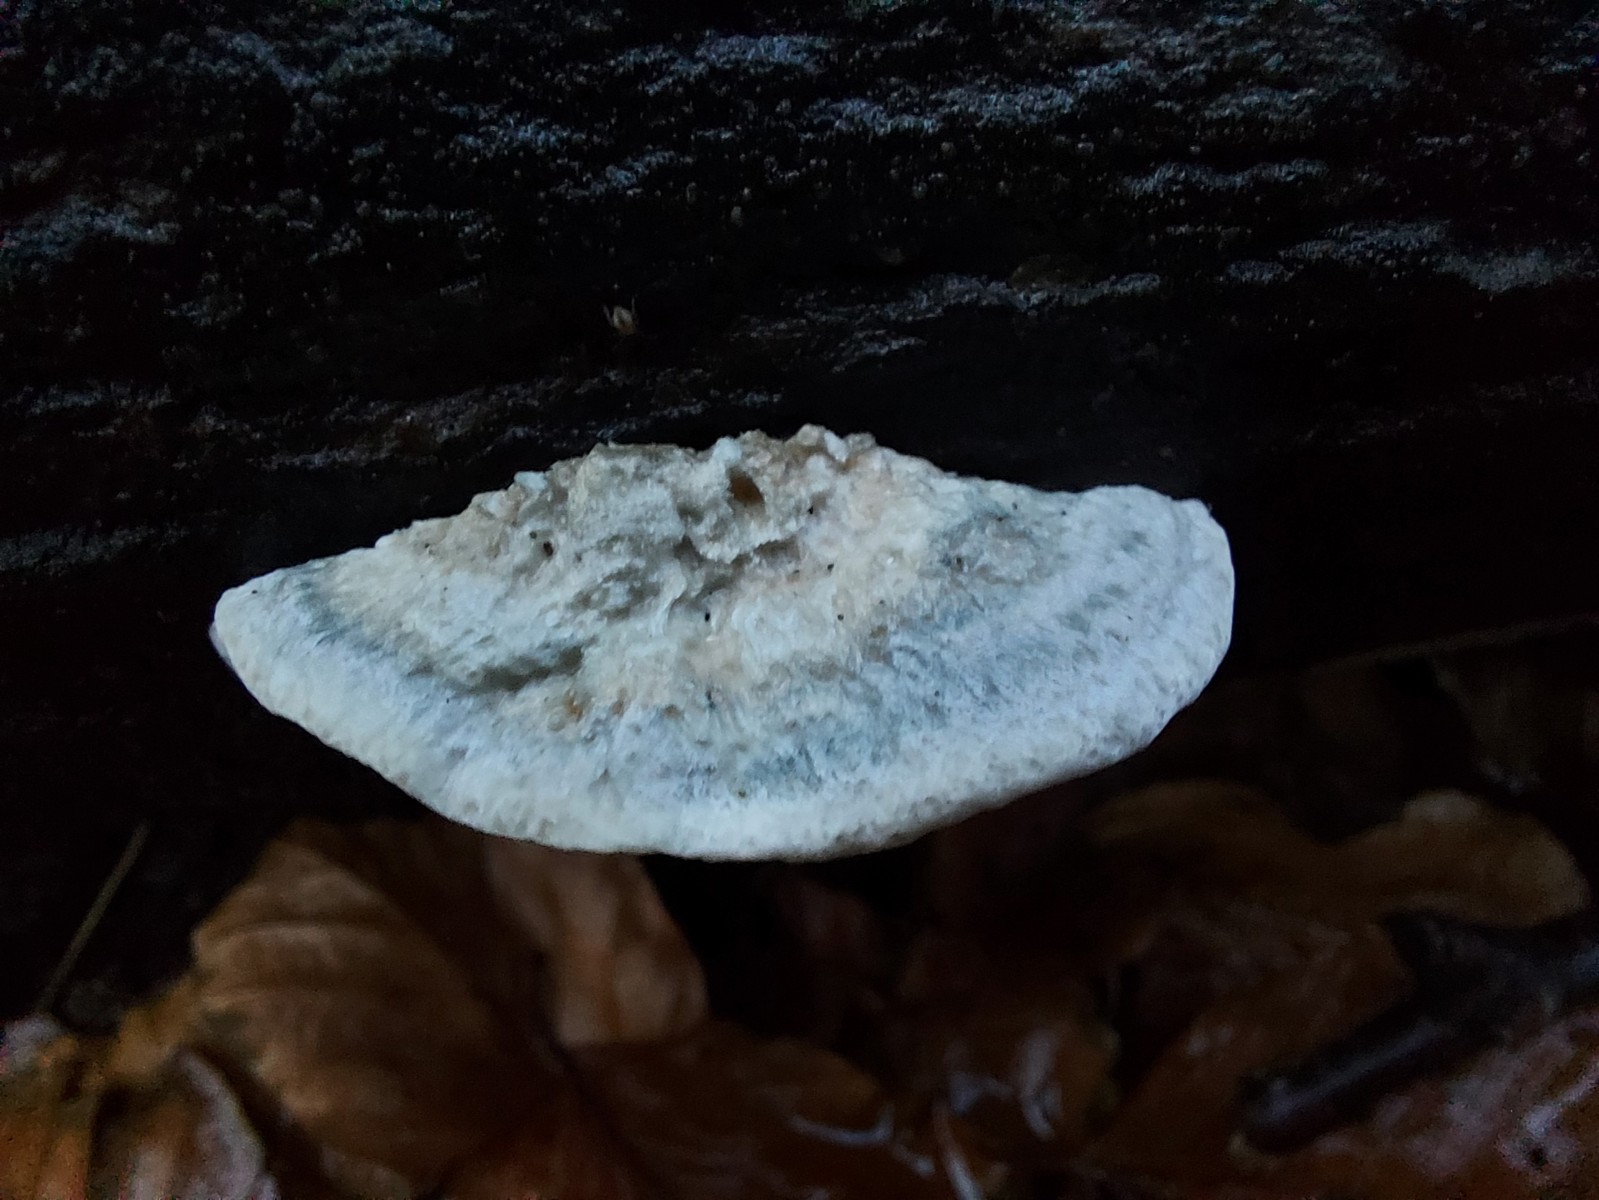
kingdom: Fungi
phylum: Basidiomycota
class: Agaricomycetes
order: Polyporales
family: Polyporaceae
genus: Cyanosporus
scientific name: Cyanosporus alni
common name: blegblå kødporesvamp
